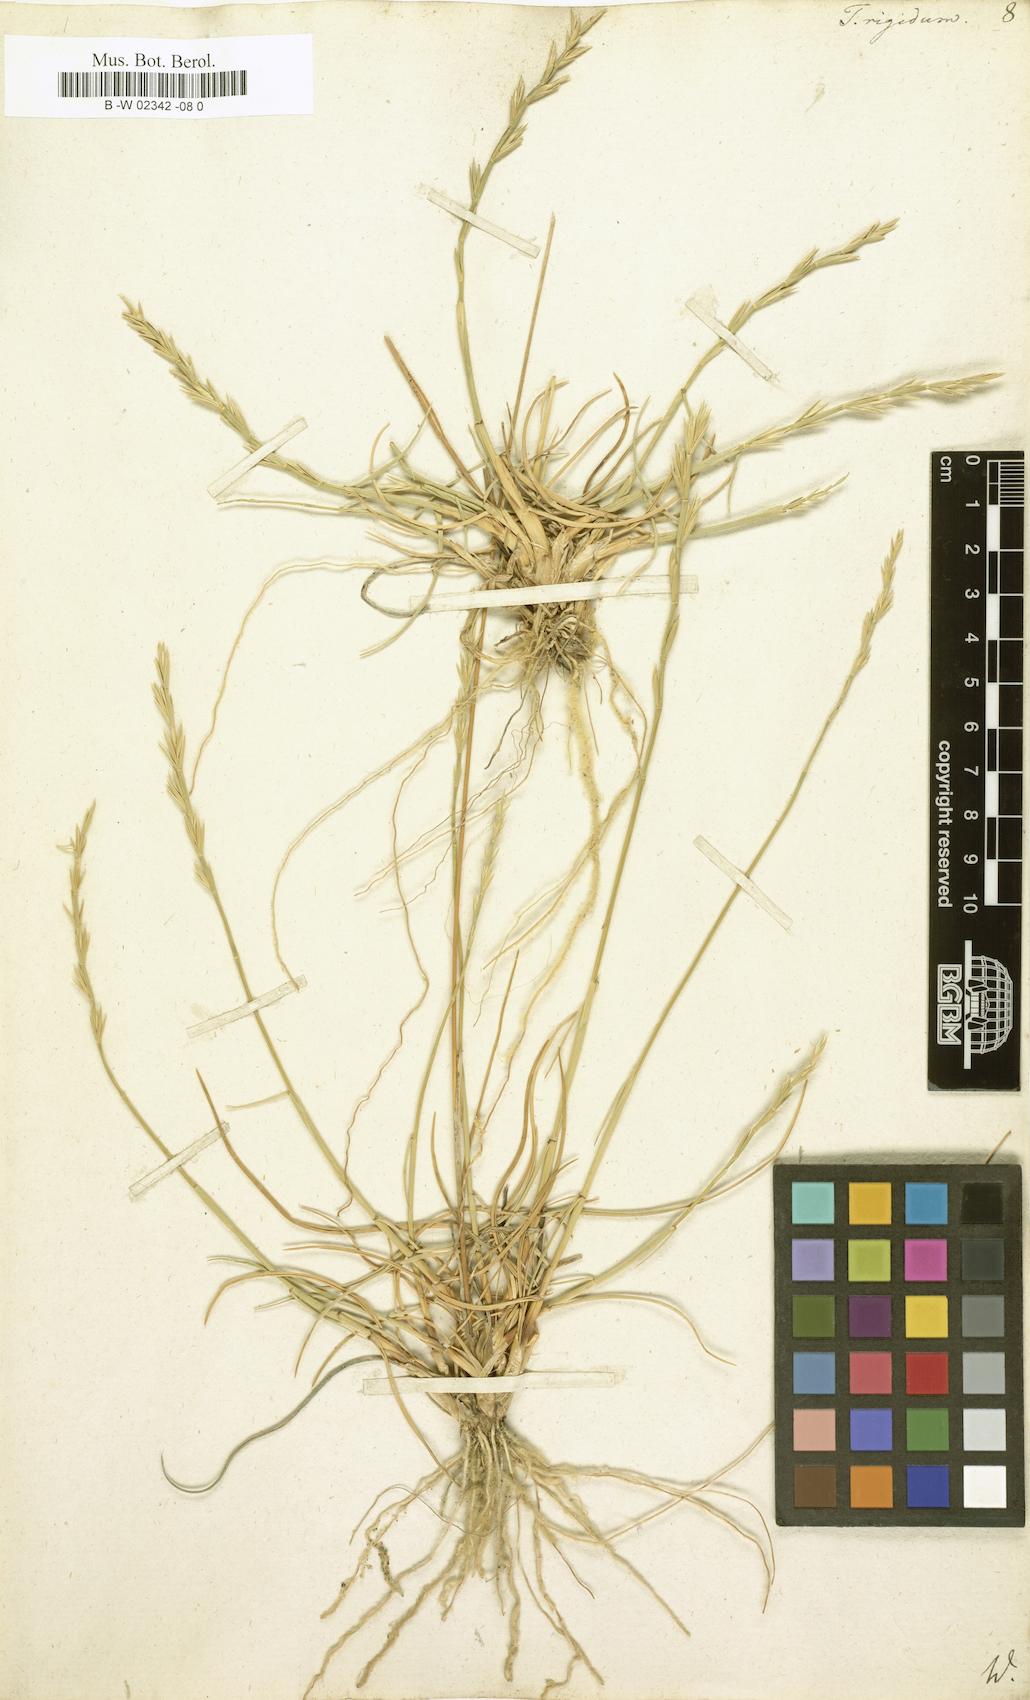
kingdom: Plantae
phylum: Tracheophyta
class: Liliopsida
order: Poales
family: Poaceae
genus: Thinopyrum
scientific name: Thinopyrum
